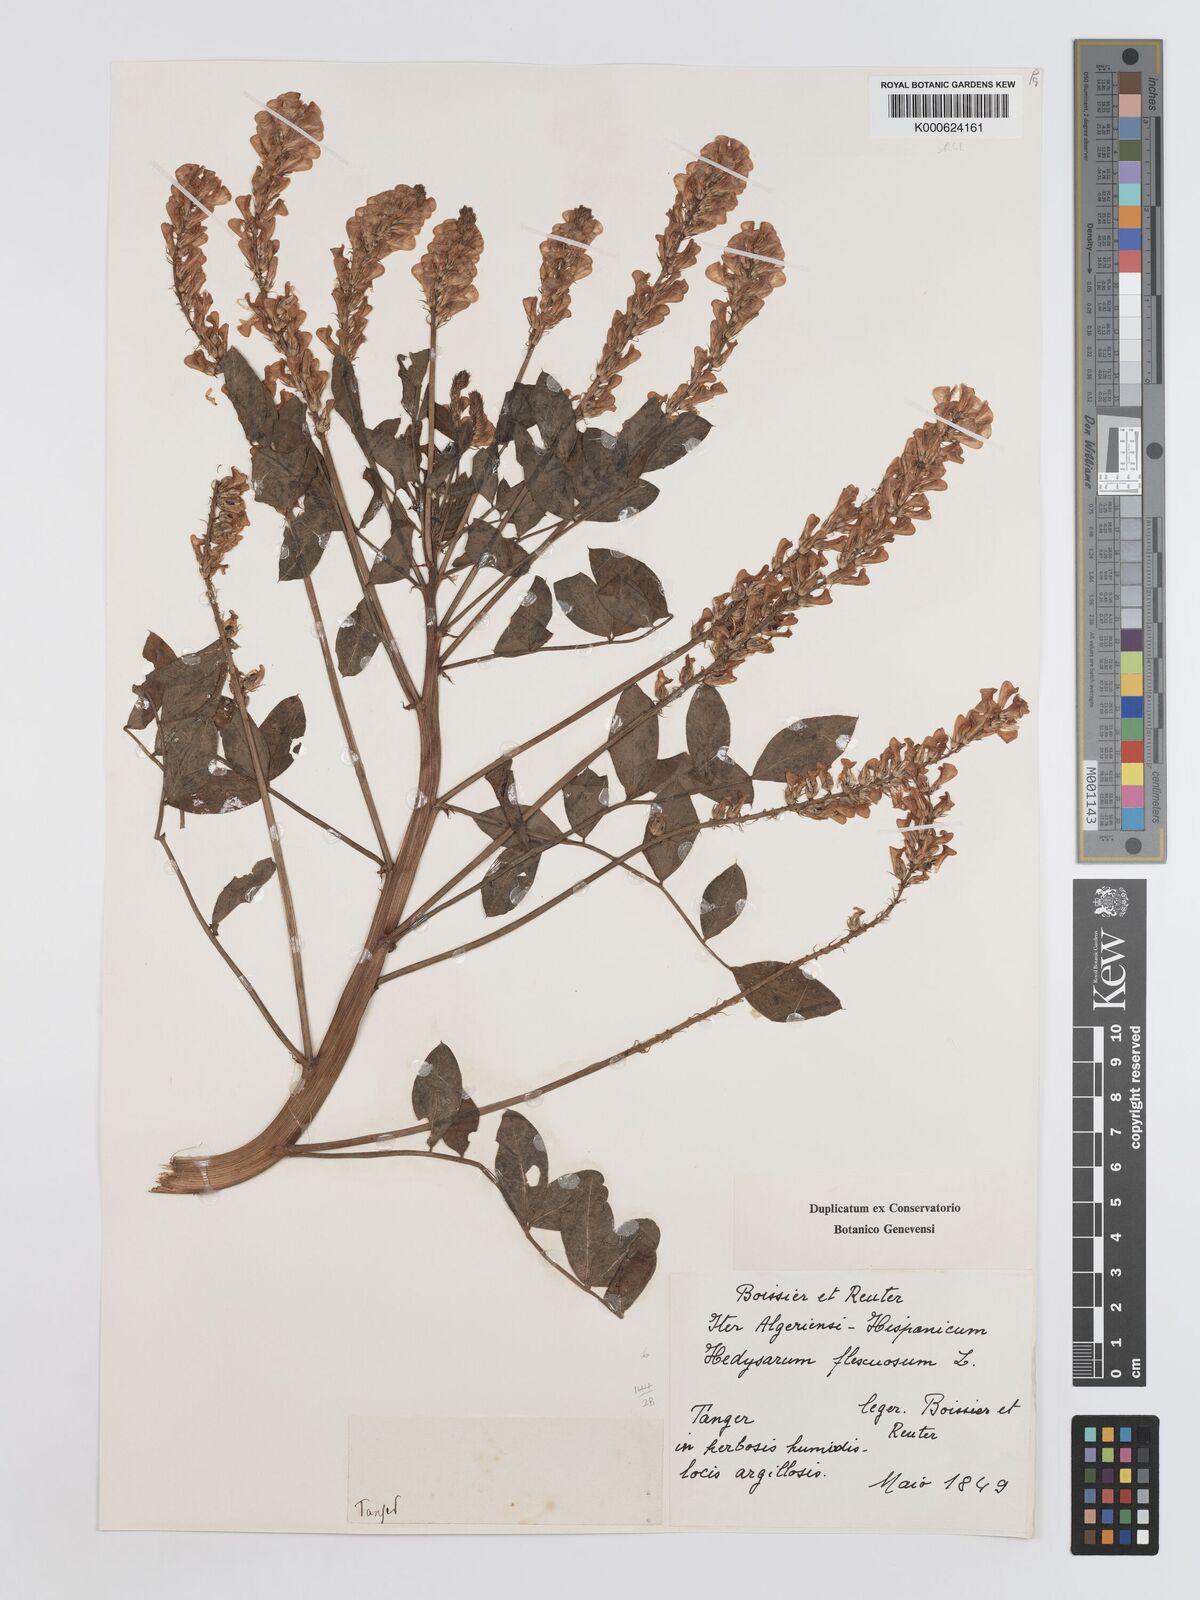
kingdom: Plantae
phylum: Tracheophyta
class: Magnoliopsida
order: Fabales
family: Fabaceae
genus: Sulla
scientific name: Sulla flexuosa
